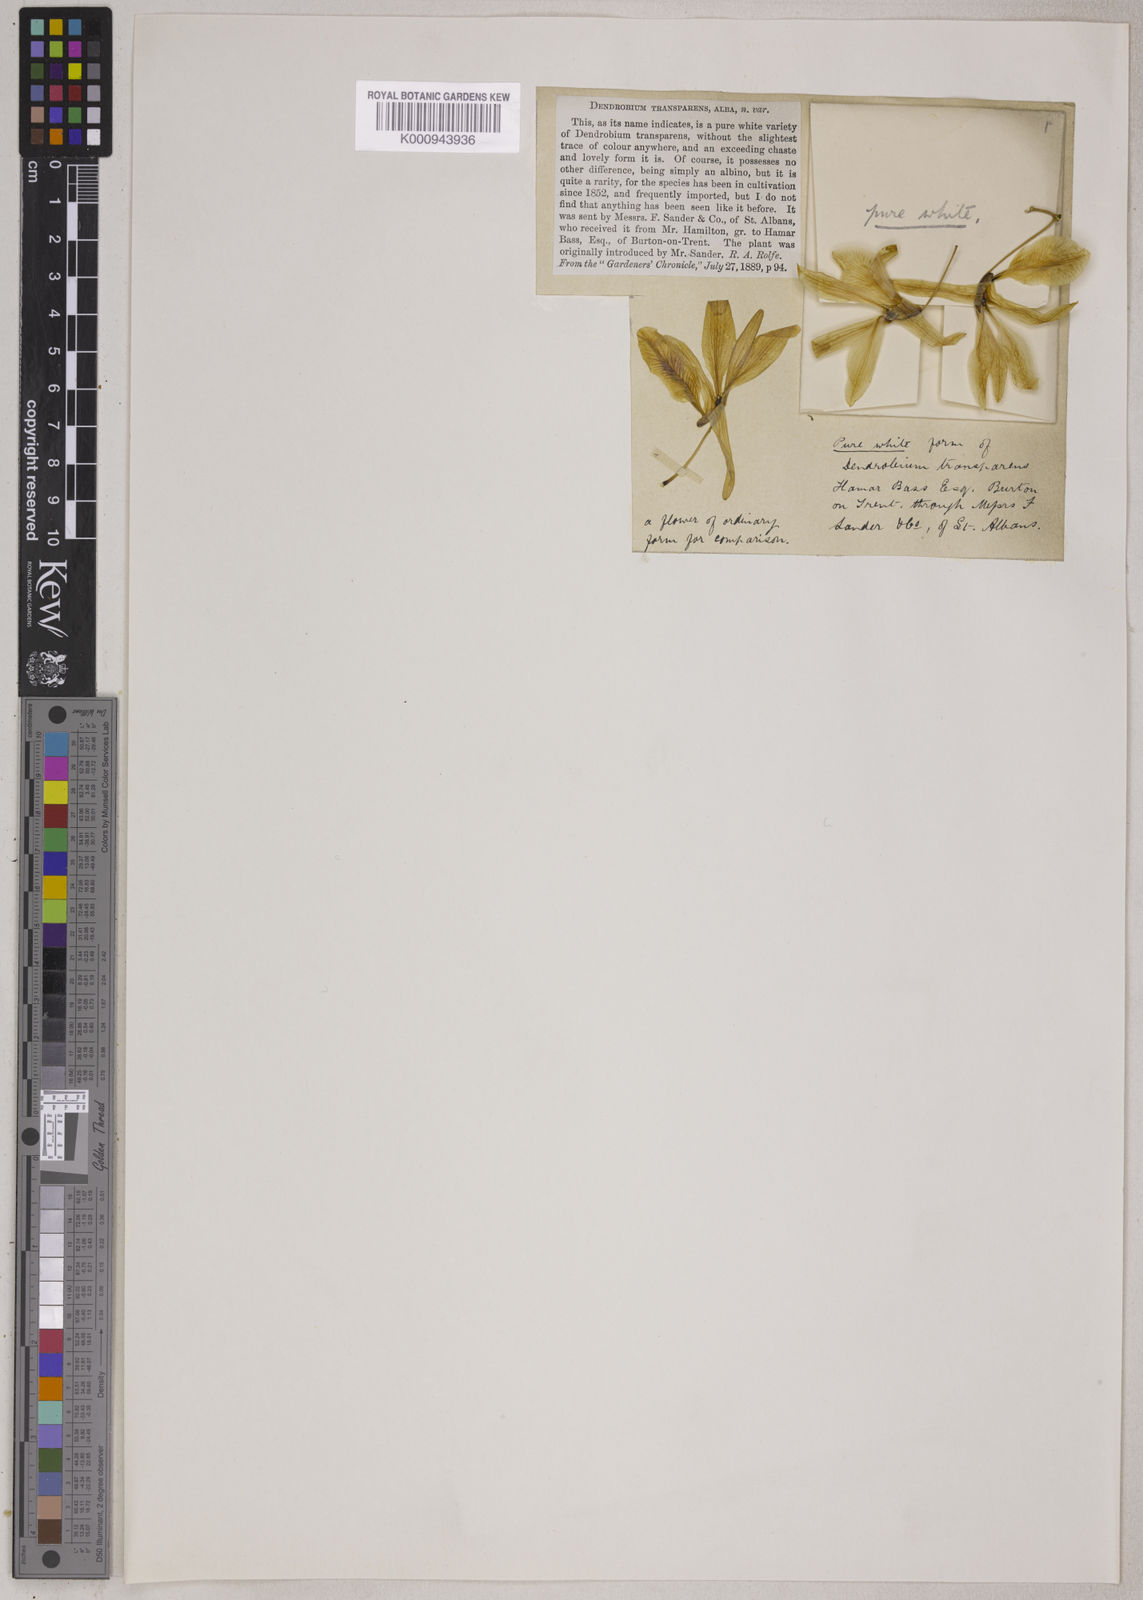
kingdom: Plantae
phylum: Tracheophyta
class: Liliopsida
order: Asparagales
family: Orchidaceae
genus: Dendrobium
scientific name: Dendrobium transparens
